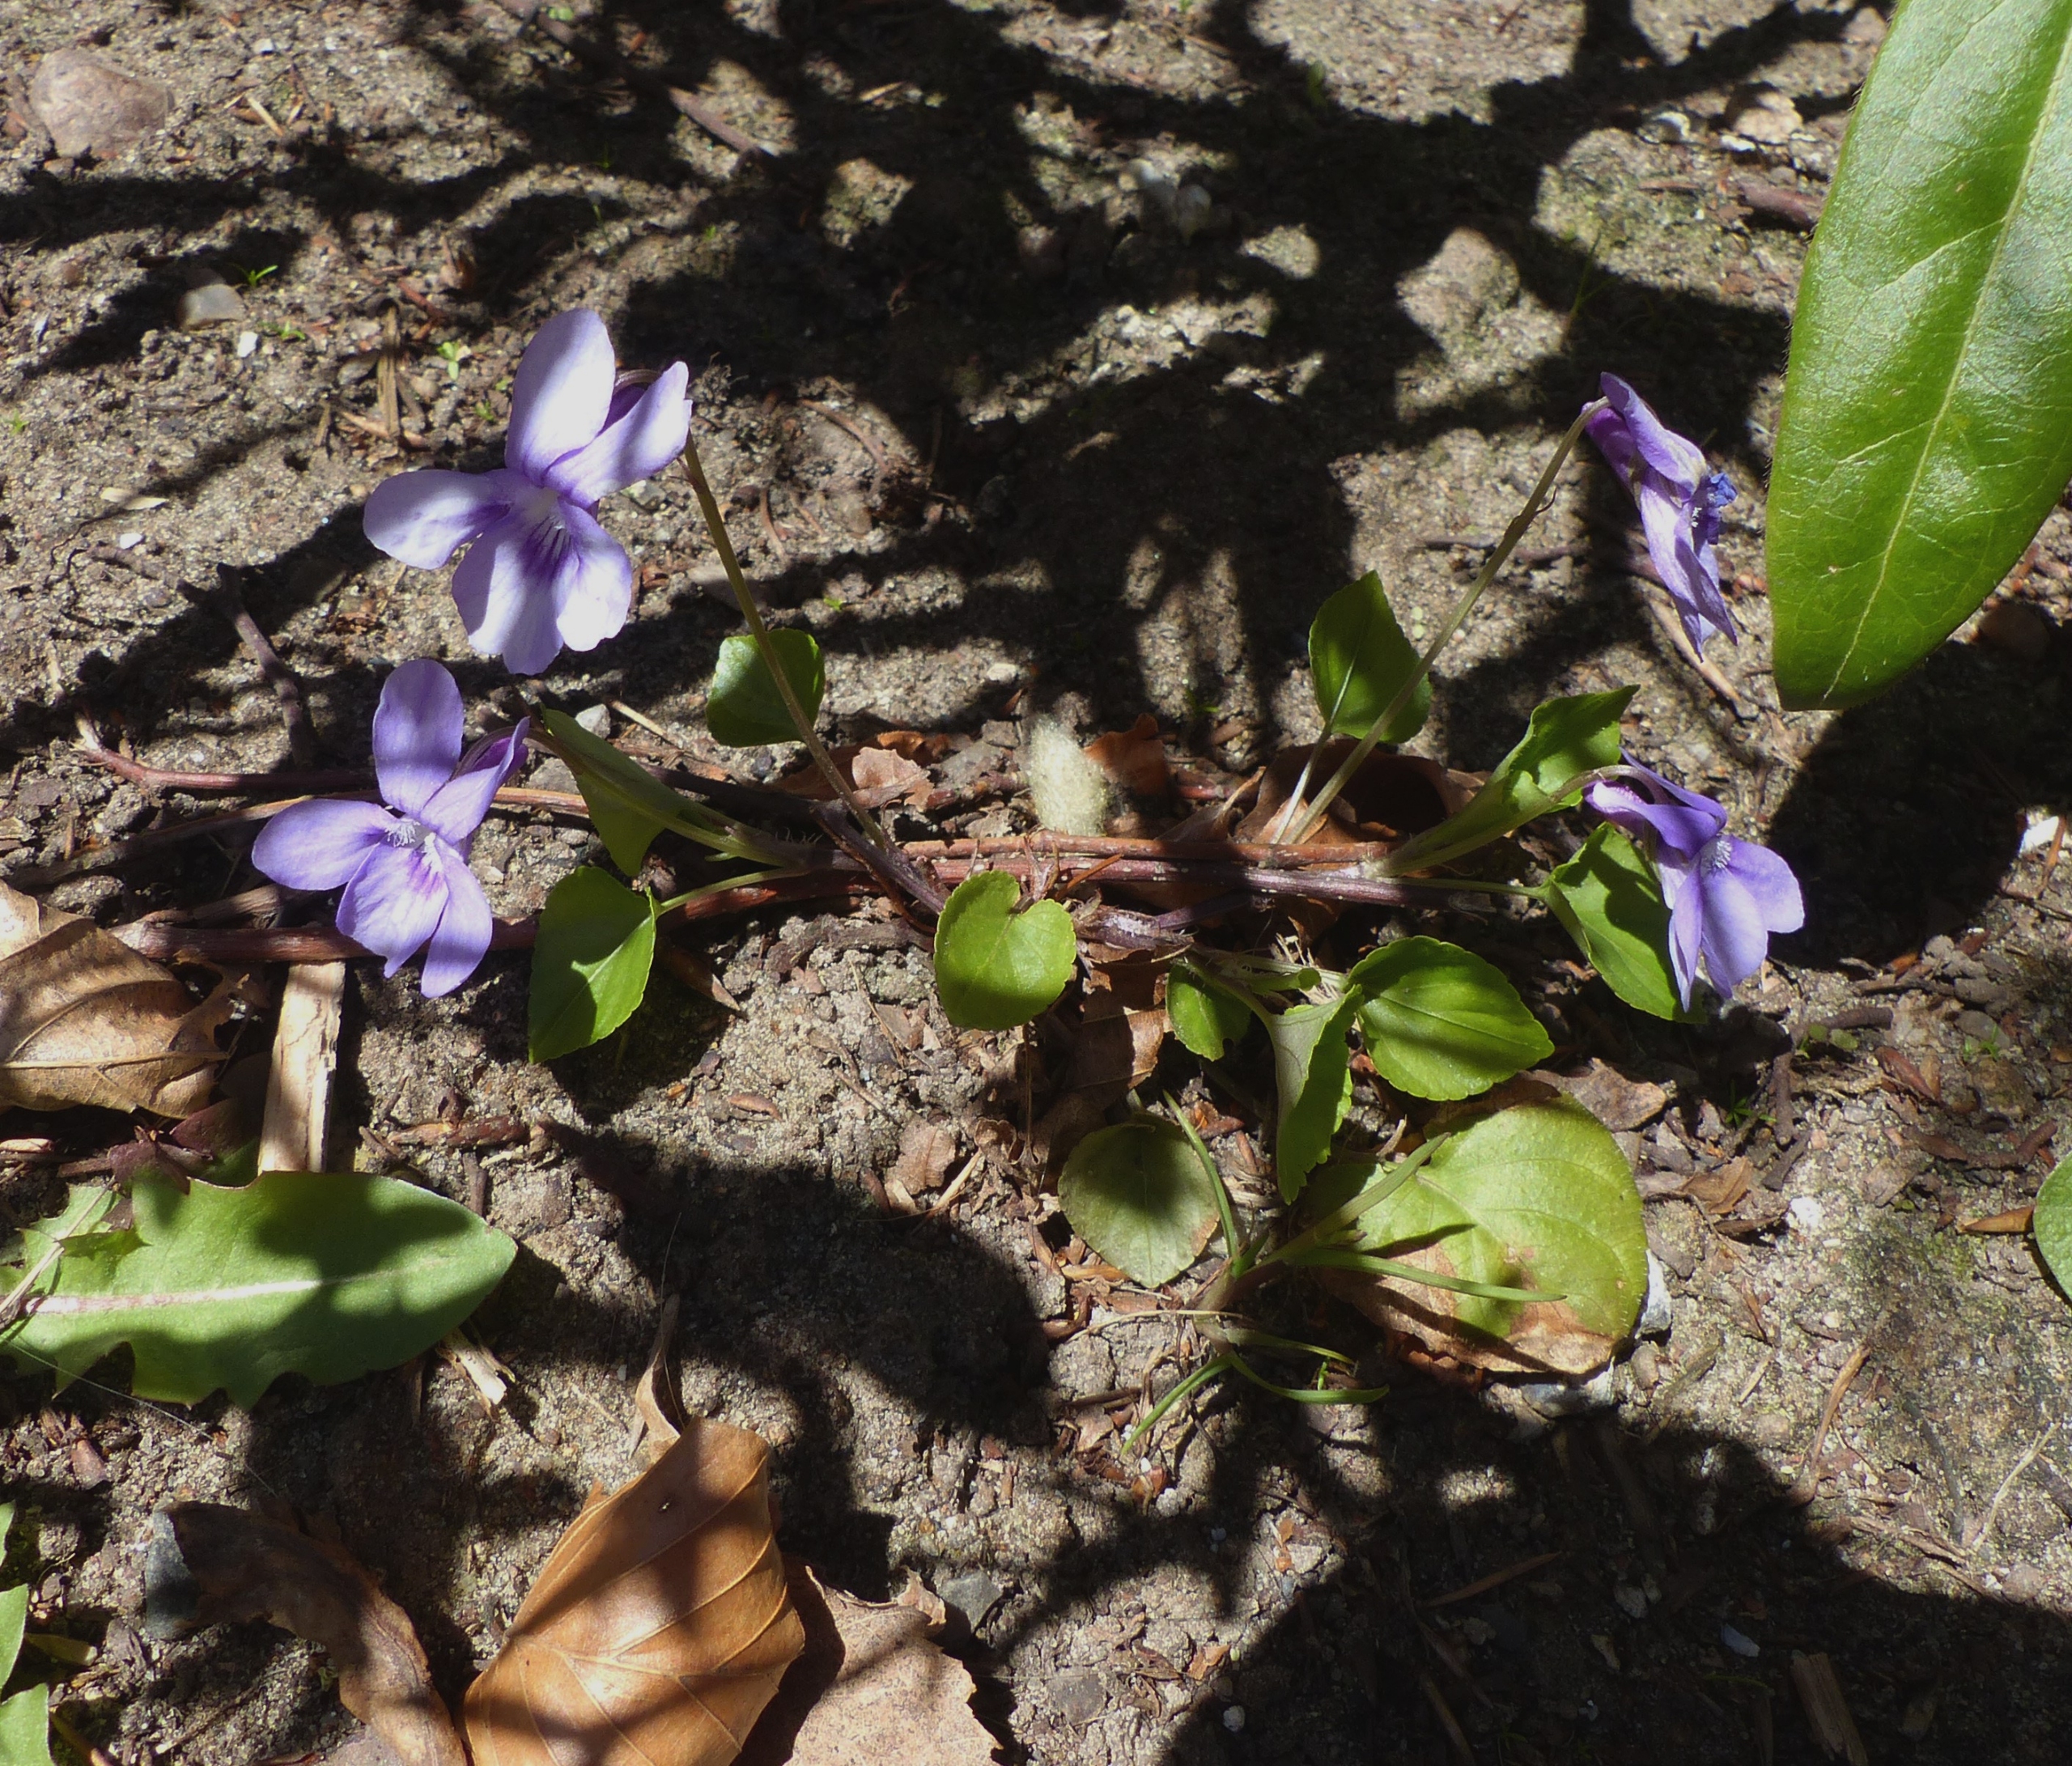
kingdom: Plantae
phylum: Tracheophyta
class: Magnoliopsida
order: Malpighiales
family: Violaceae
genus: Viola
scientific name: Viola reichenbachiana
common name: Skov-viol
